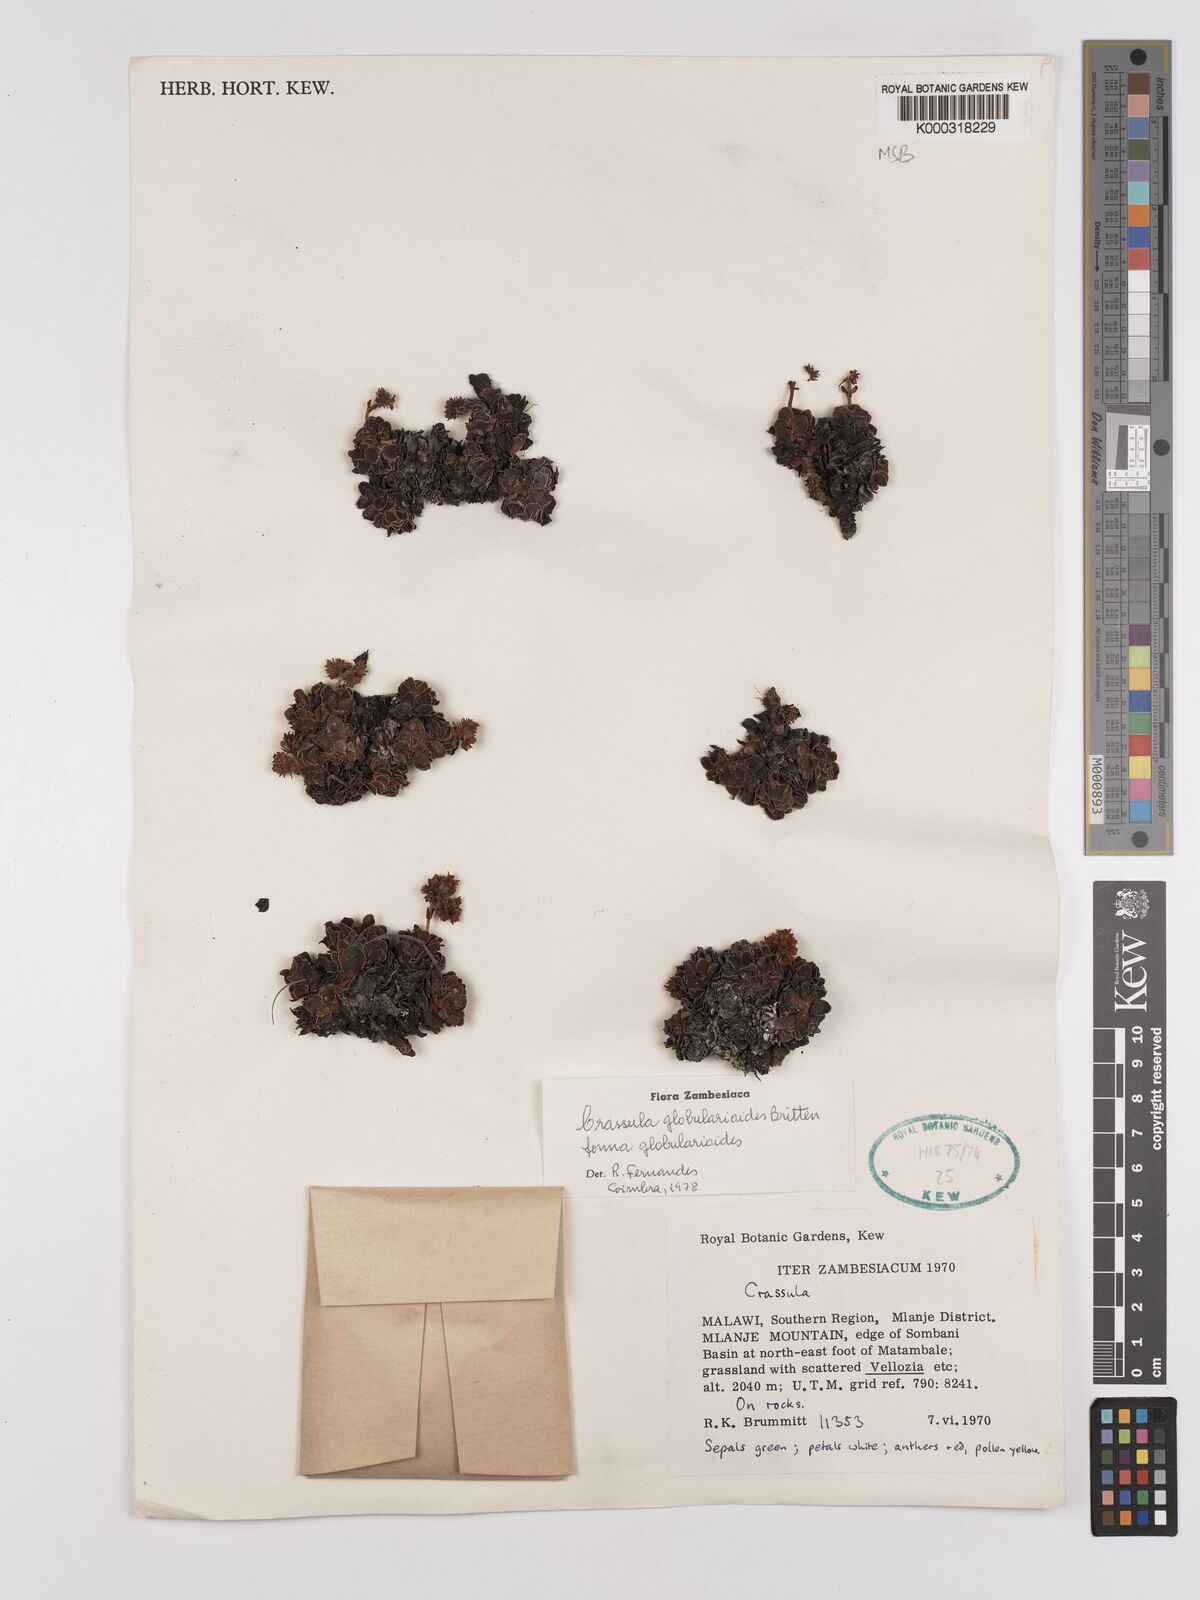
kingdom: Plantae
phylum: Tracheophyta
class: Magnoliopsida
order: Saxifragales
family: Crassulaceae
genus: Crassula
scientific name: Crassula globularioides
